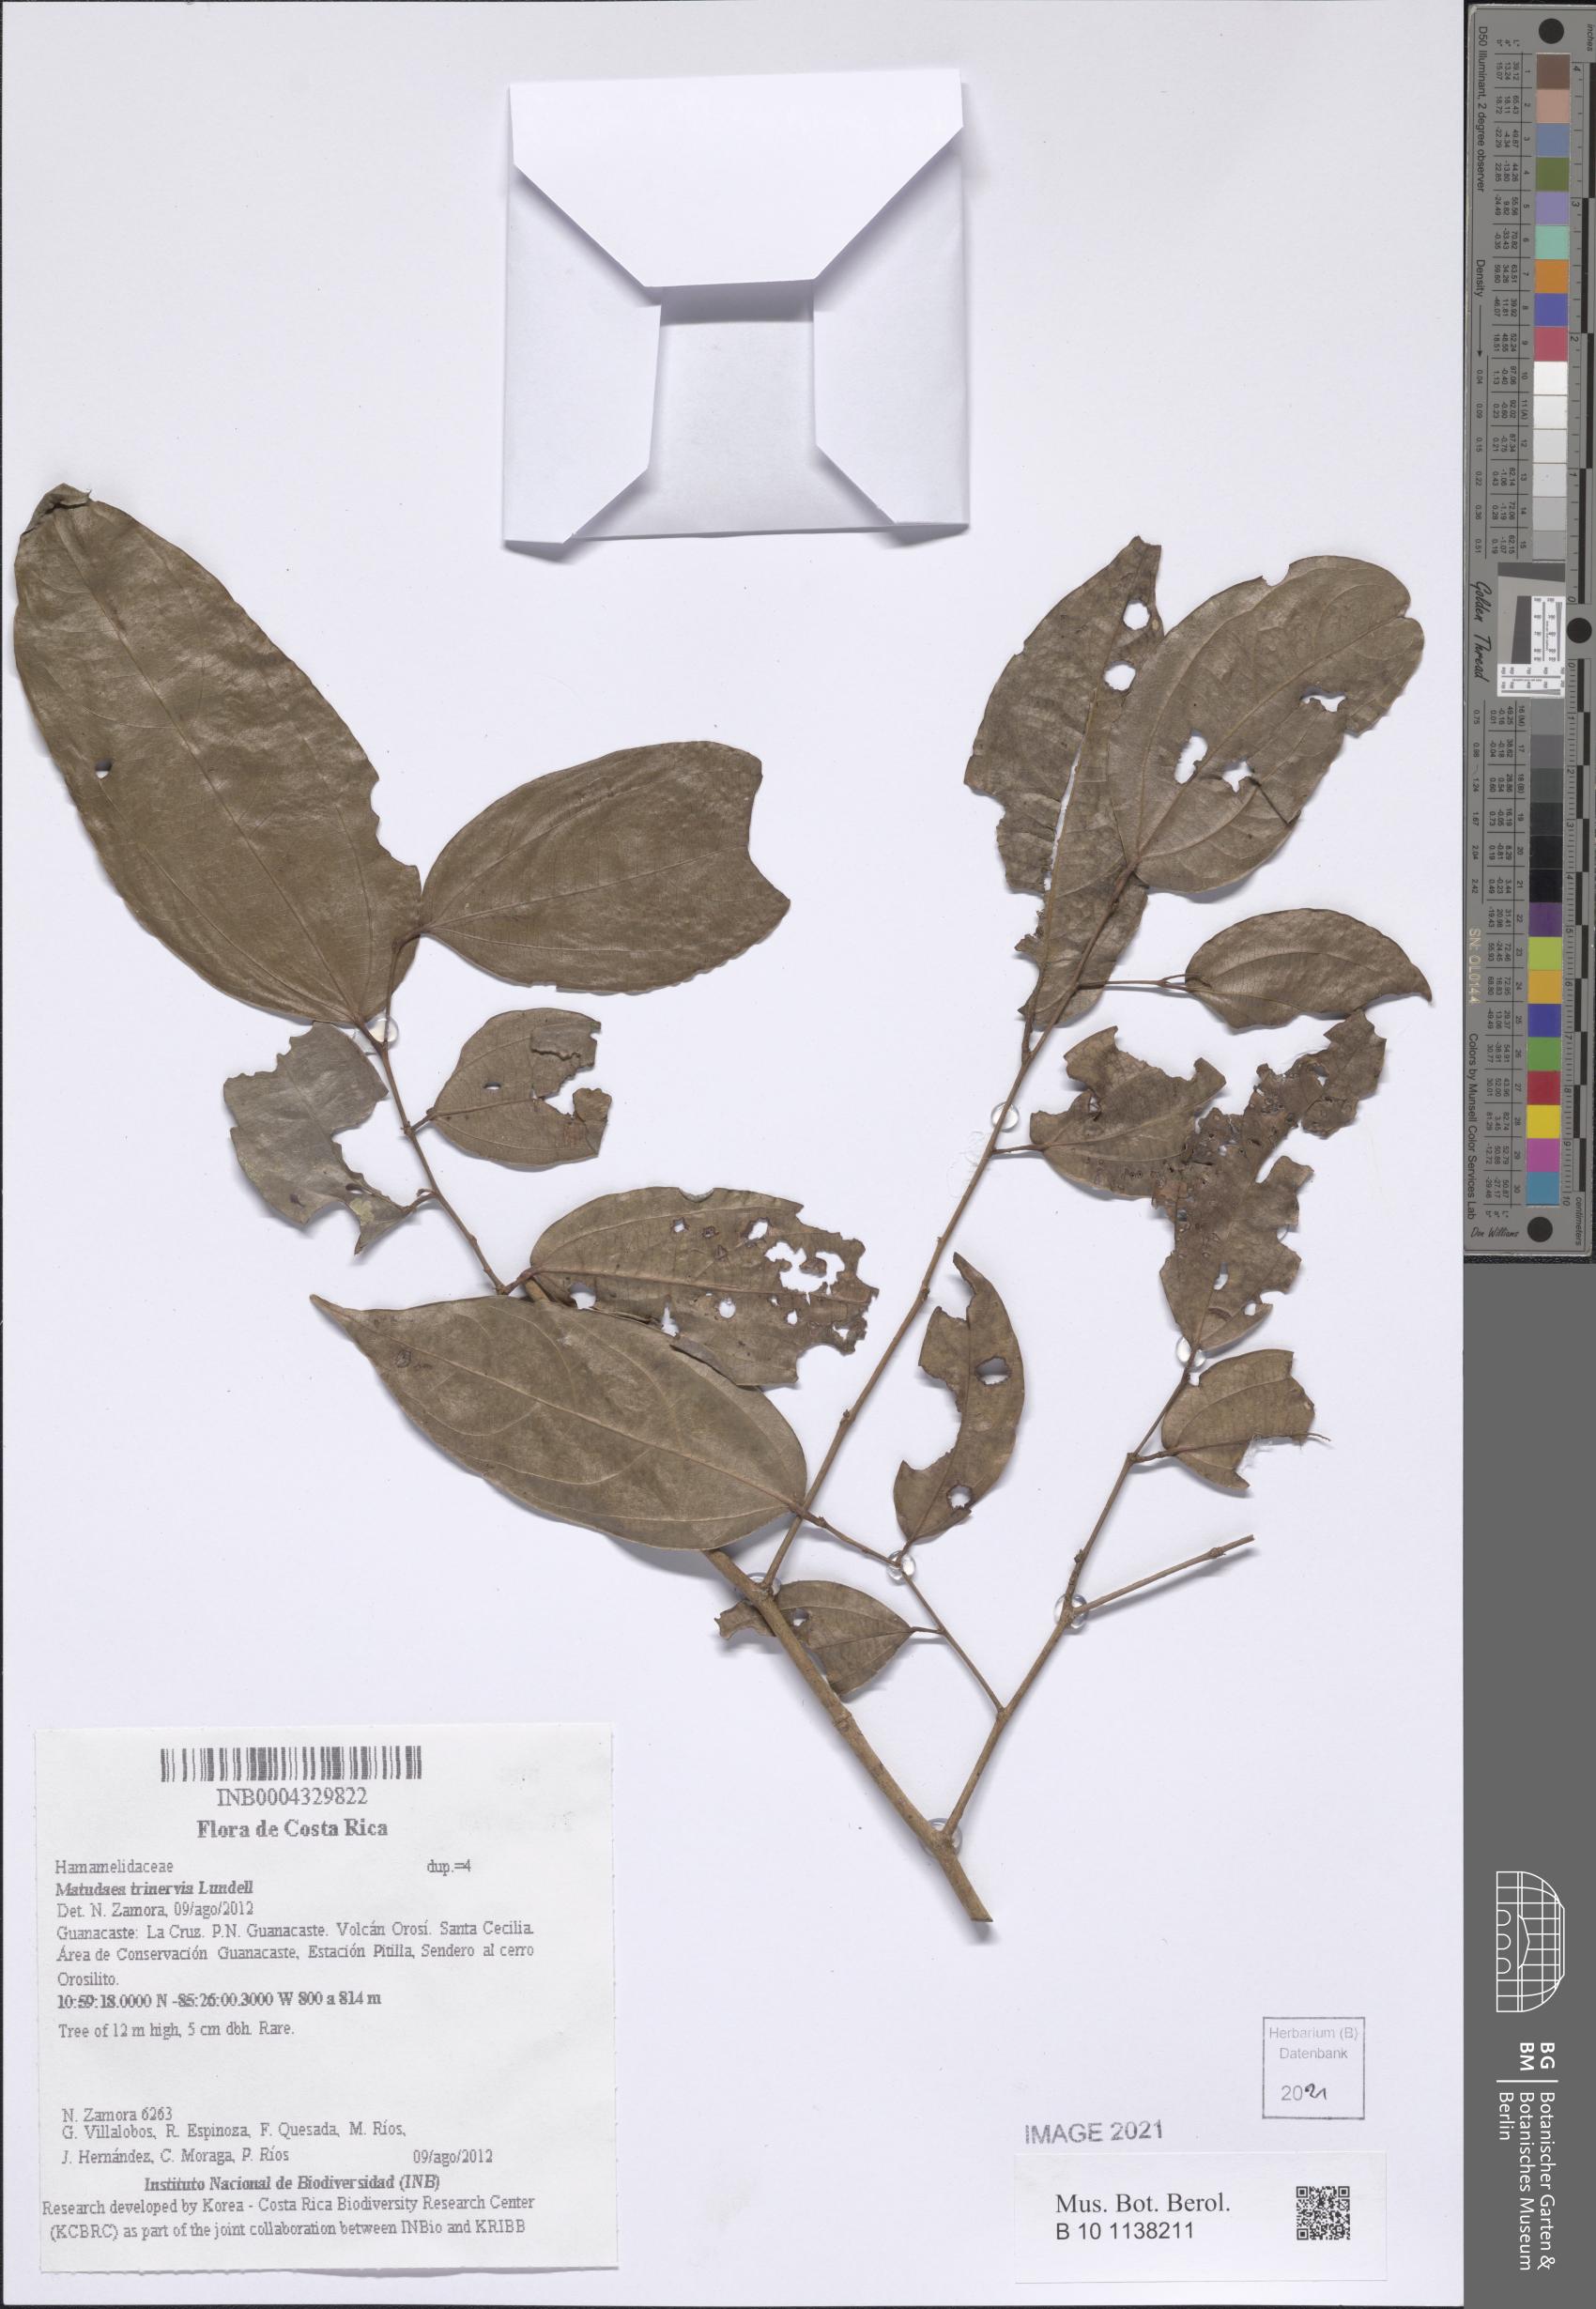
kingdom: Plantae
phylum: Tracheophyta
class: Magnoliopsida
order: Saxifragales
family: Hamamelidaceae
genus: Matudaea
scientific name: Matudaea trinervia
